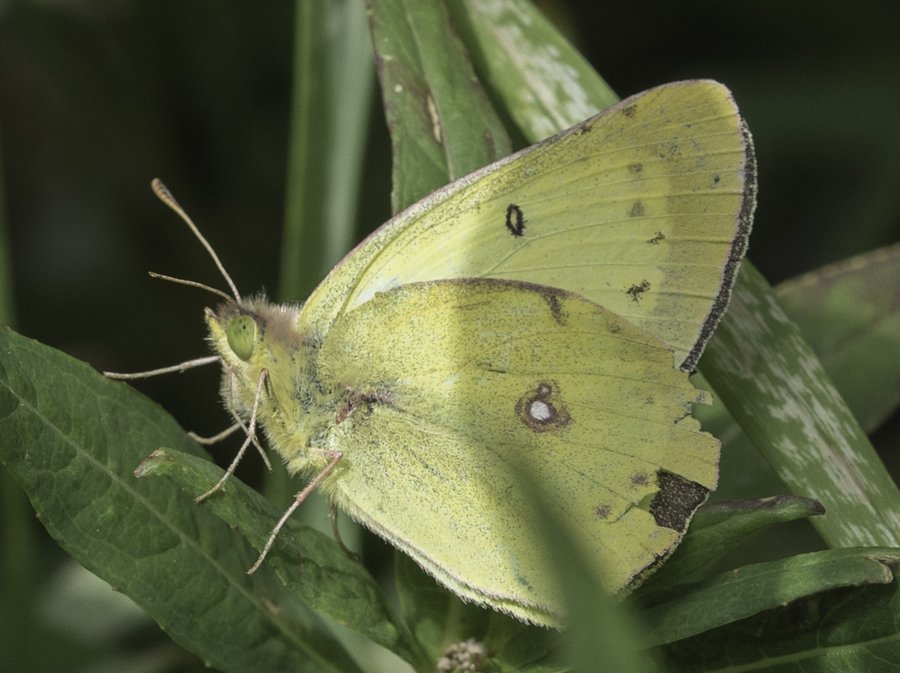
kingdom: Animalia
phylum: Arthropoda
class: Insecta
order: Lepidoptera
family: Pieridae
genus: Colias
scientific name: Colias philodice
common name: Clouded Sulphur
